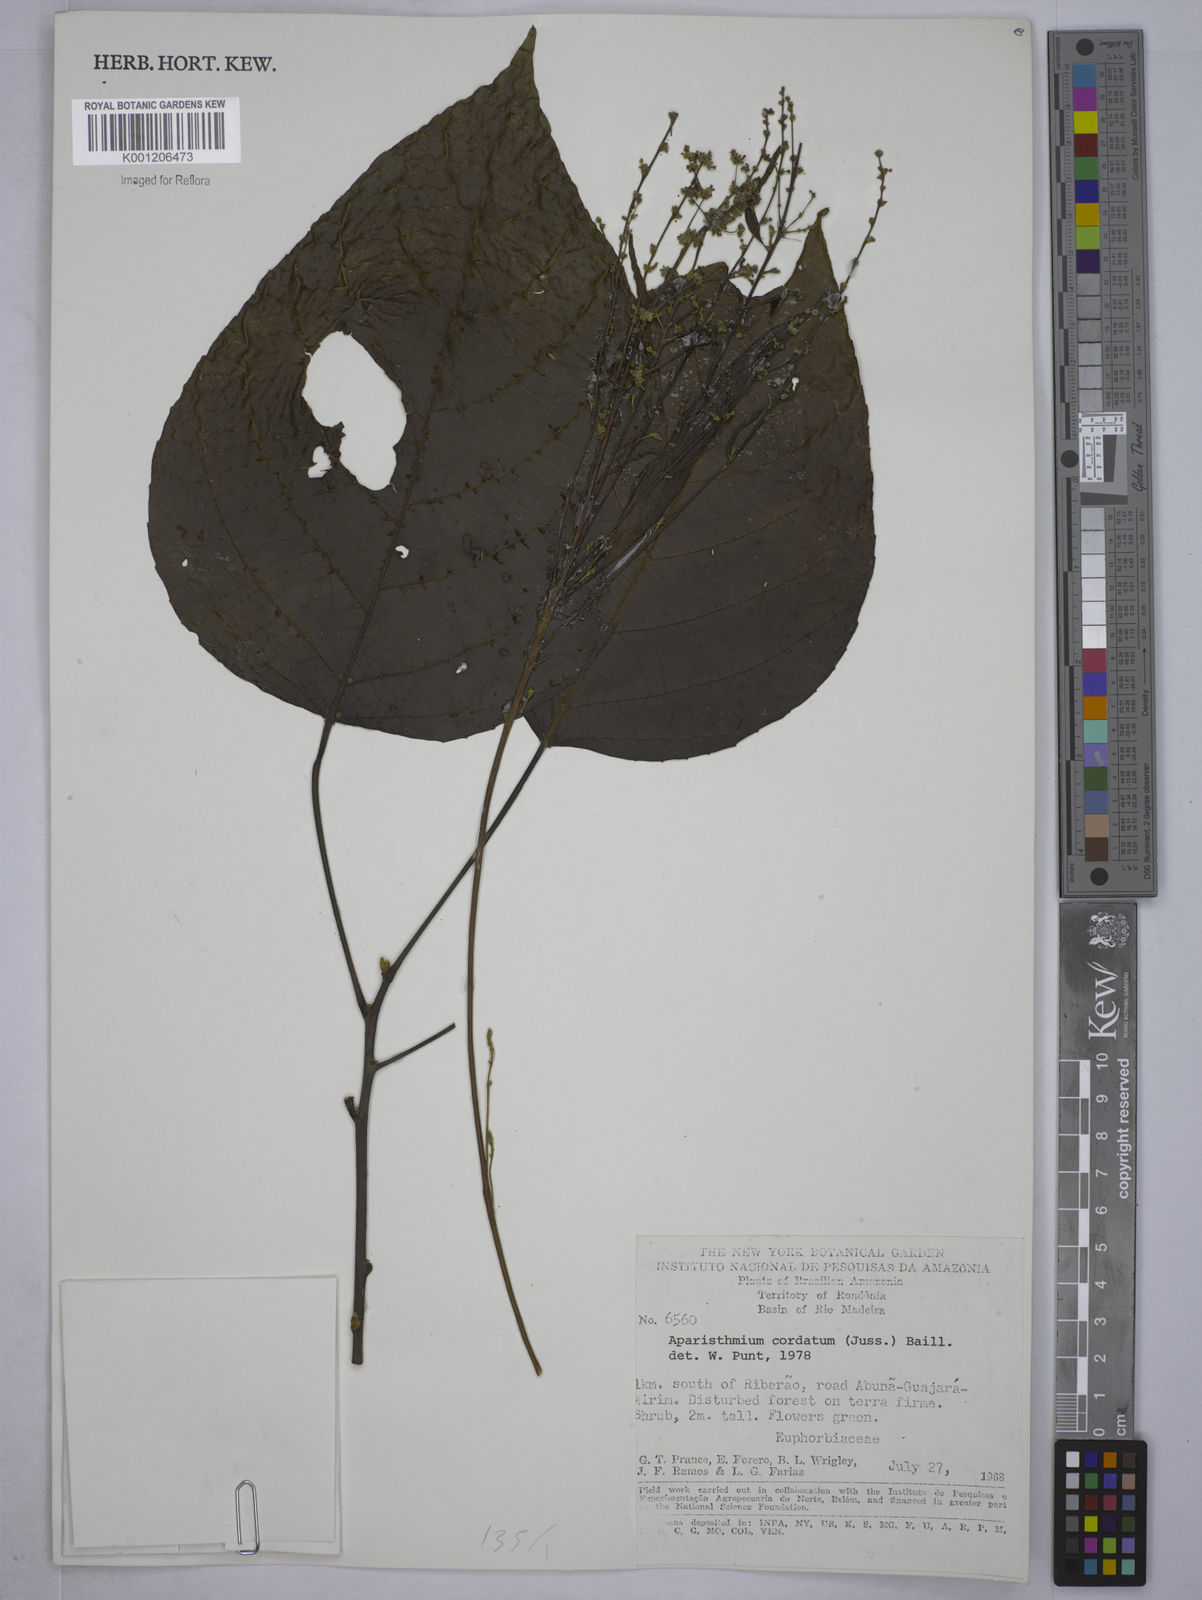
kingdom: Plantae
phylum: Tracheophyta
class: Magnoliopsida
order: Malpighiales
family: Euphorbiaceae
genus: Aparisthmium
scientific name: Aparisthmium cordatum
